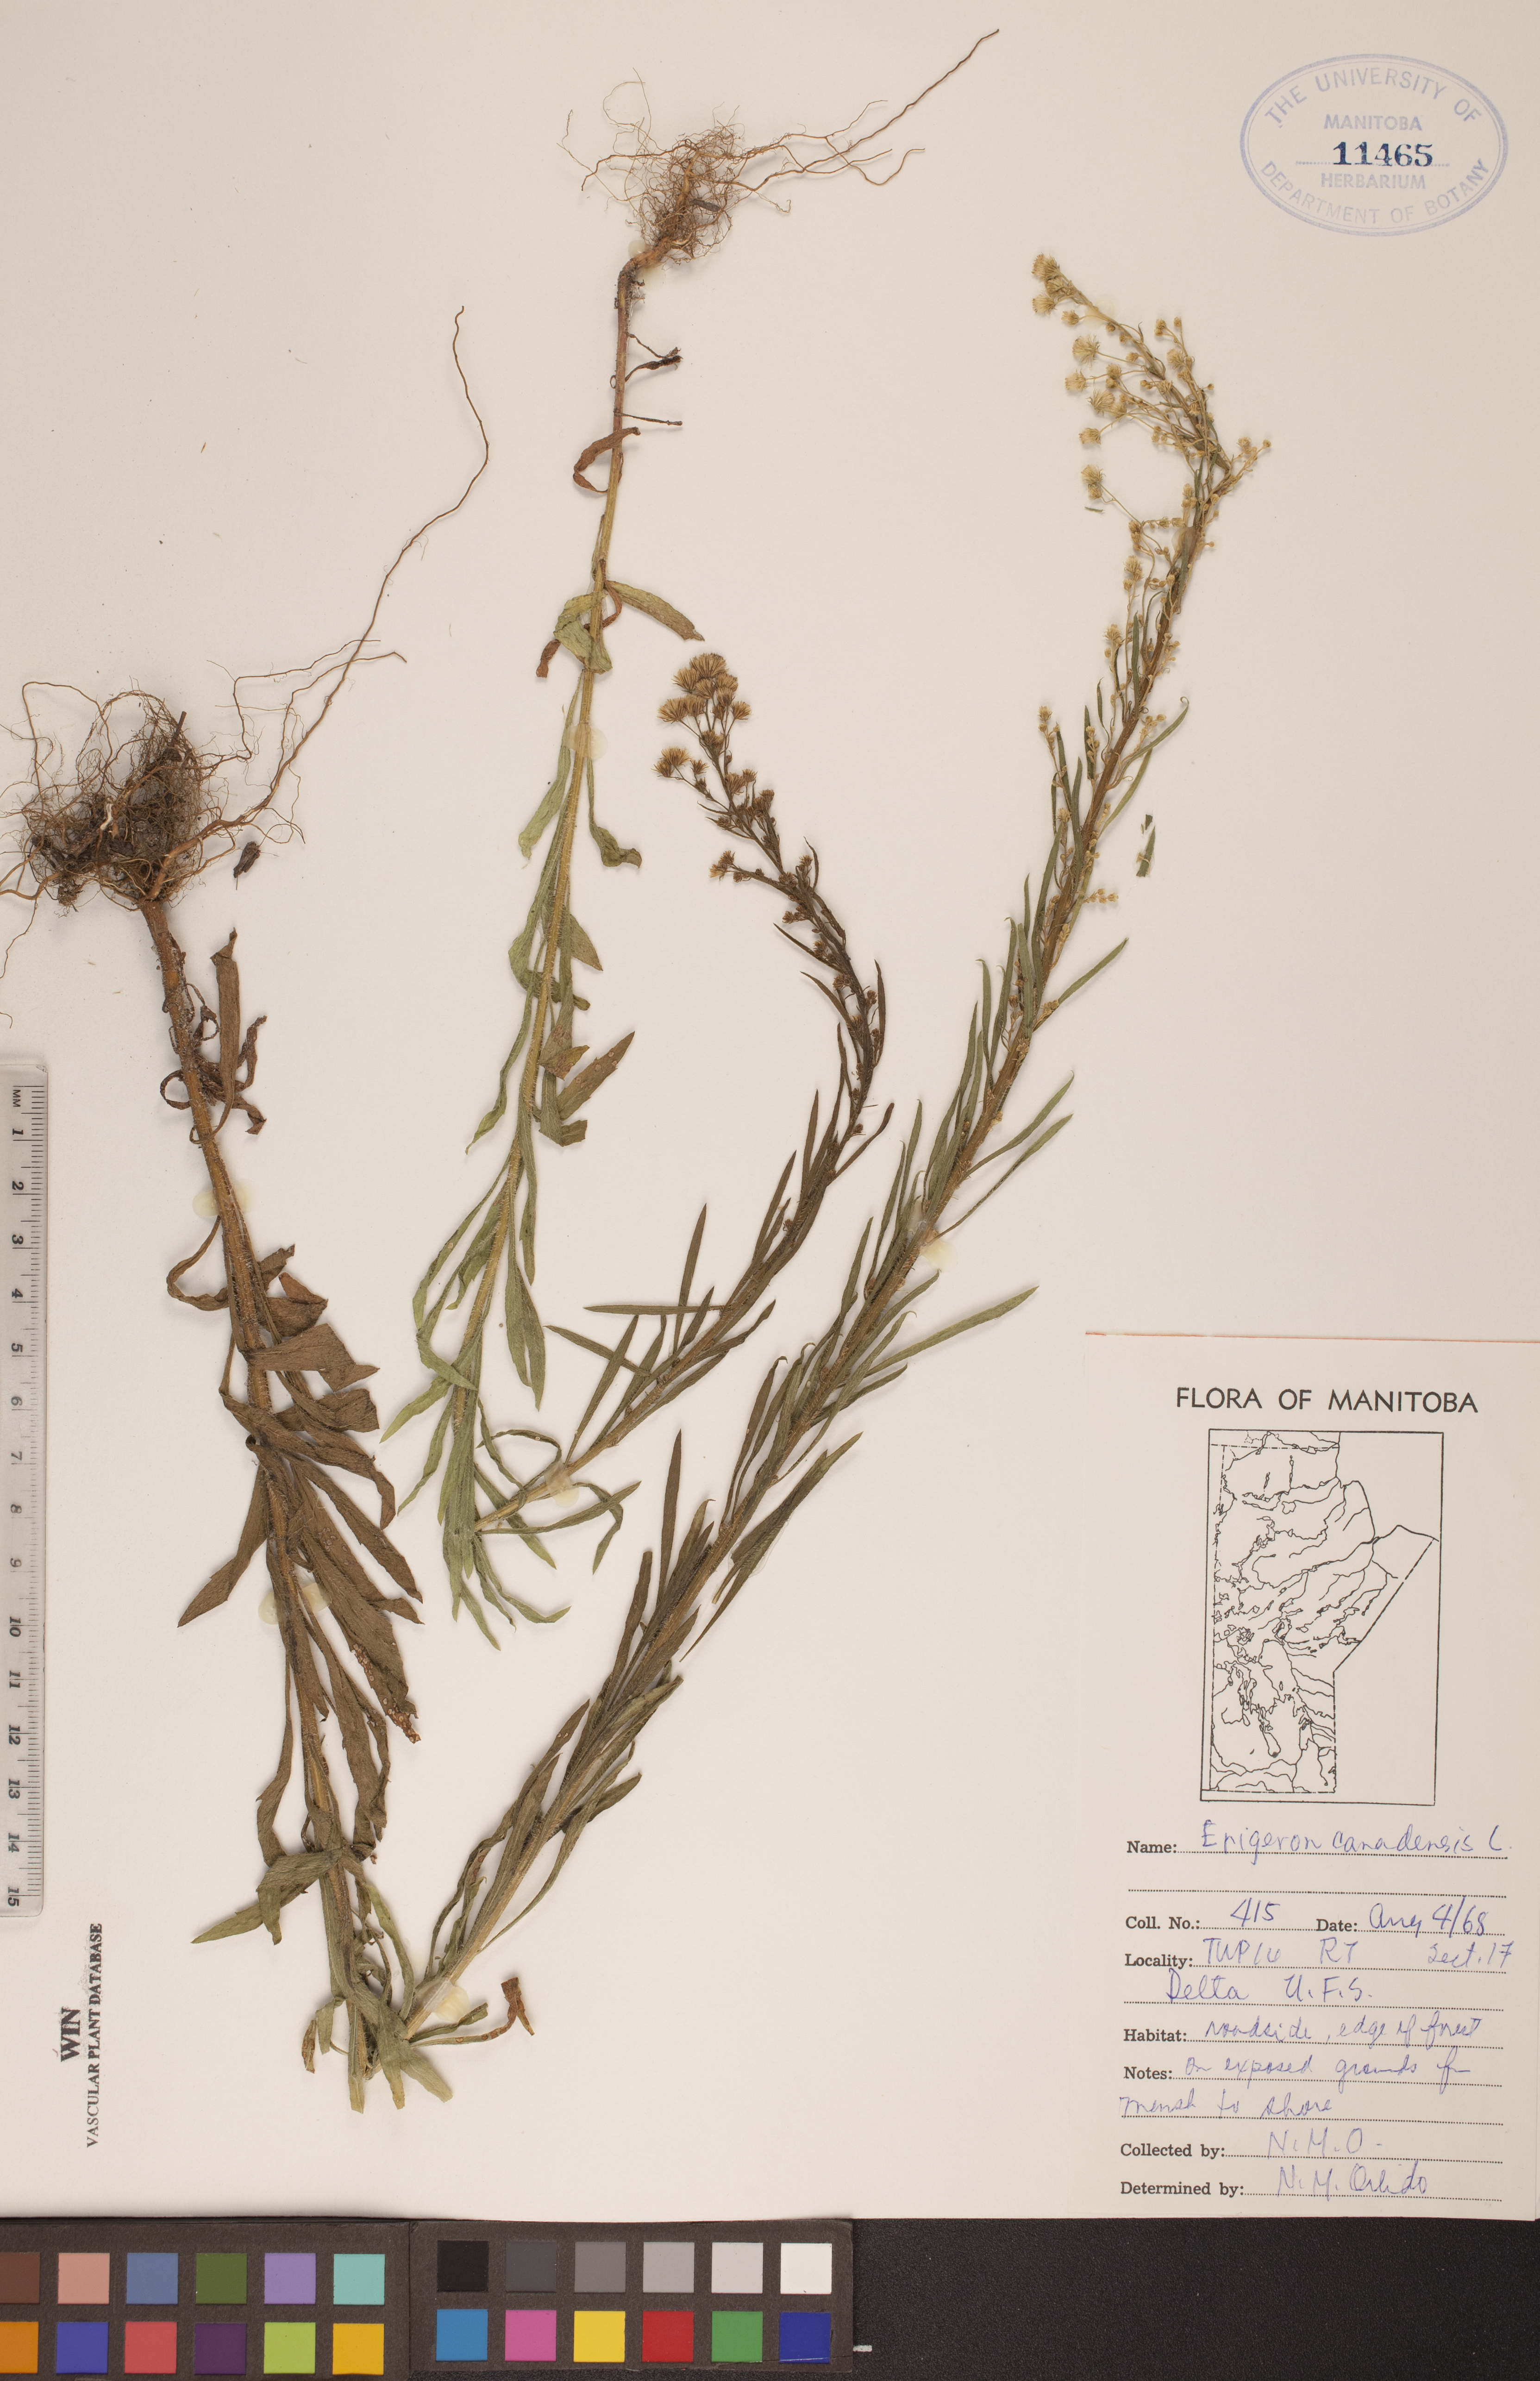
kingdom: Plantae
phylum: Tracheophyta
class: Magnoliopsida
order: Asterales
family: Asteraceae
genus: Erigeron
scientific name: Erigeron canadensis
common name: Canadian fleabane
